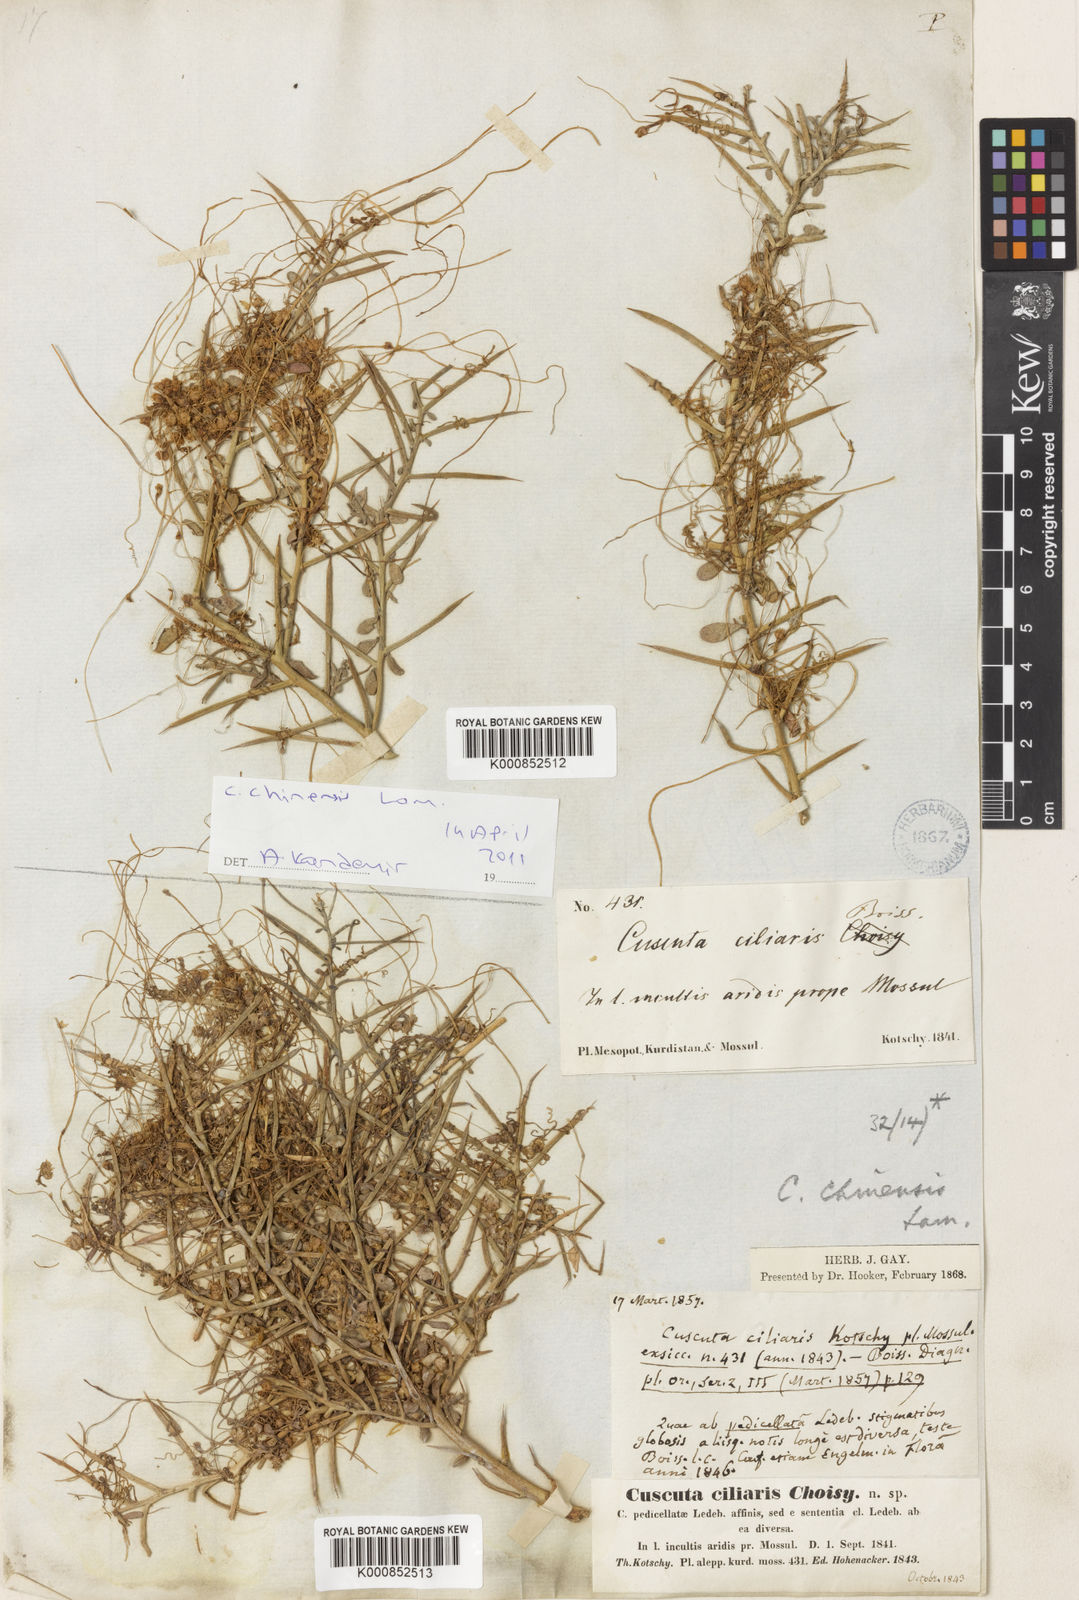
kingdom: Plantae
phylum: Tracheophyta
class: Magnoliopsida
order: Solanales
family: Convolvulaceae
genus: Cuscuta
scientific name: Cuscuta chinensis
